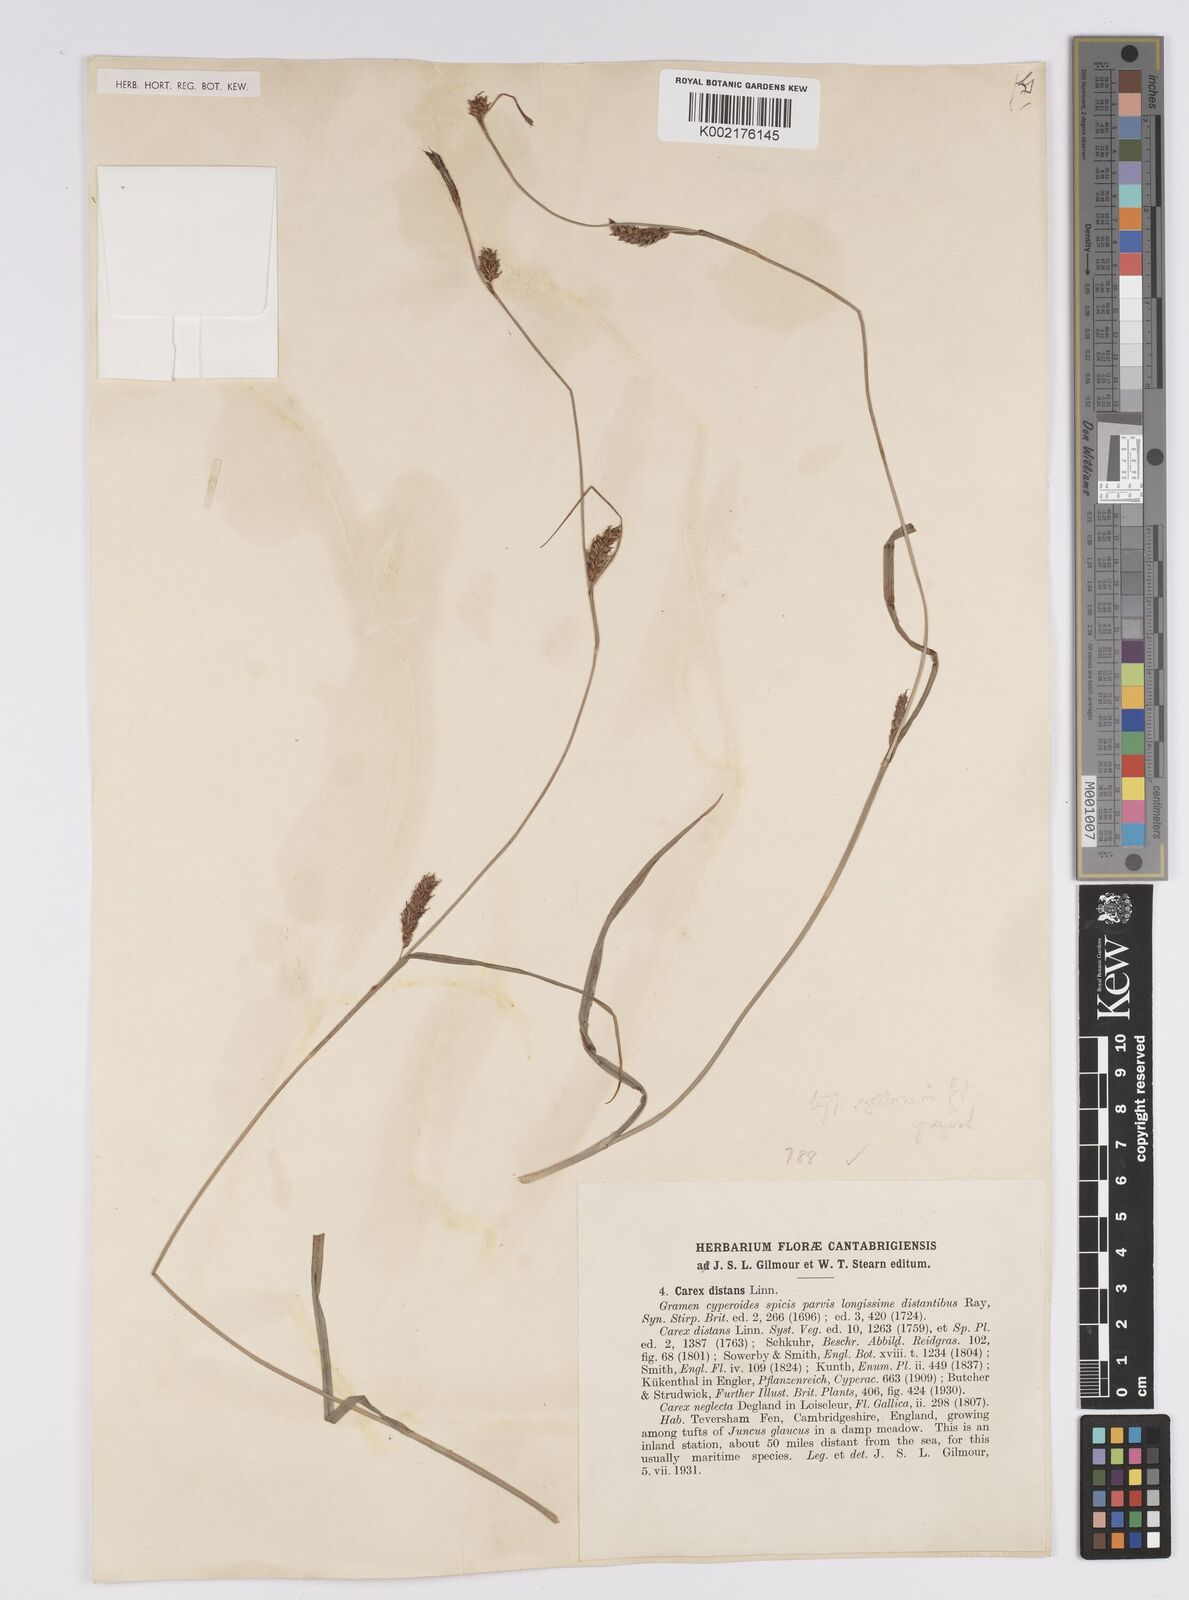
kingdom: Plantae
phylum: Tracheophyta
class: Liliopsida
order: Poales
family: Cyperaceae
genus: Carex
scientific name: Carex distans
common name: Distant sedge
